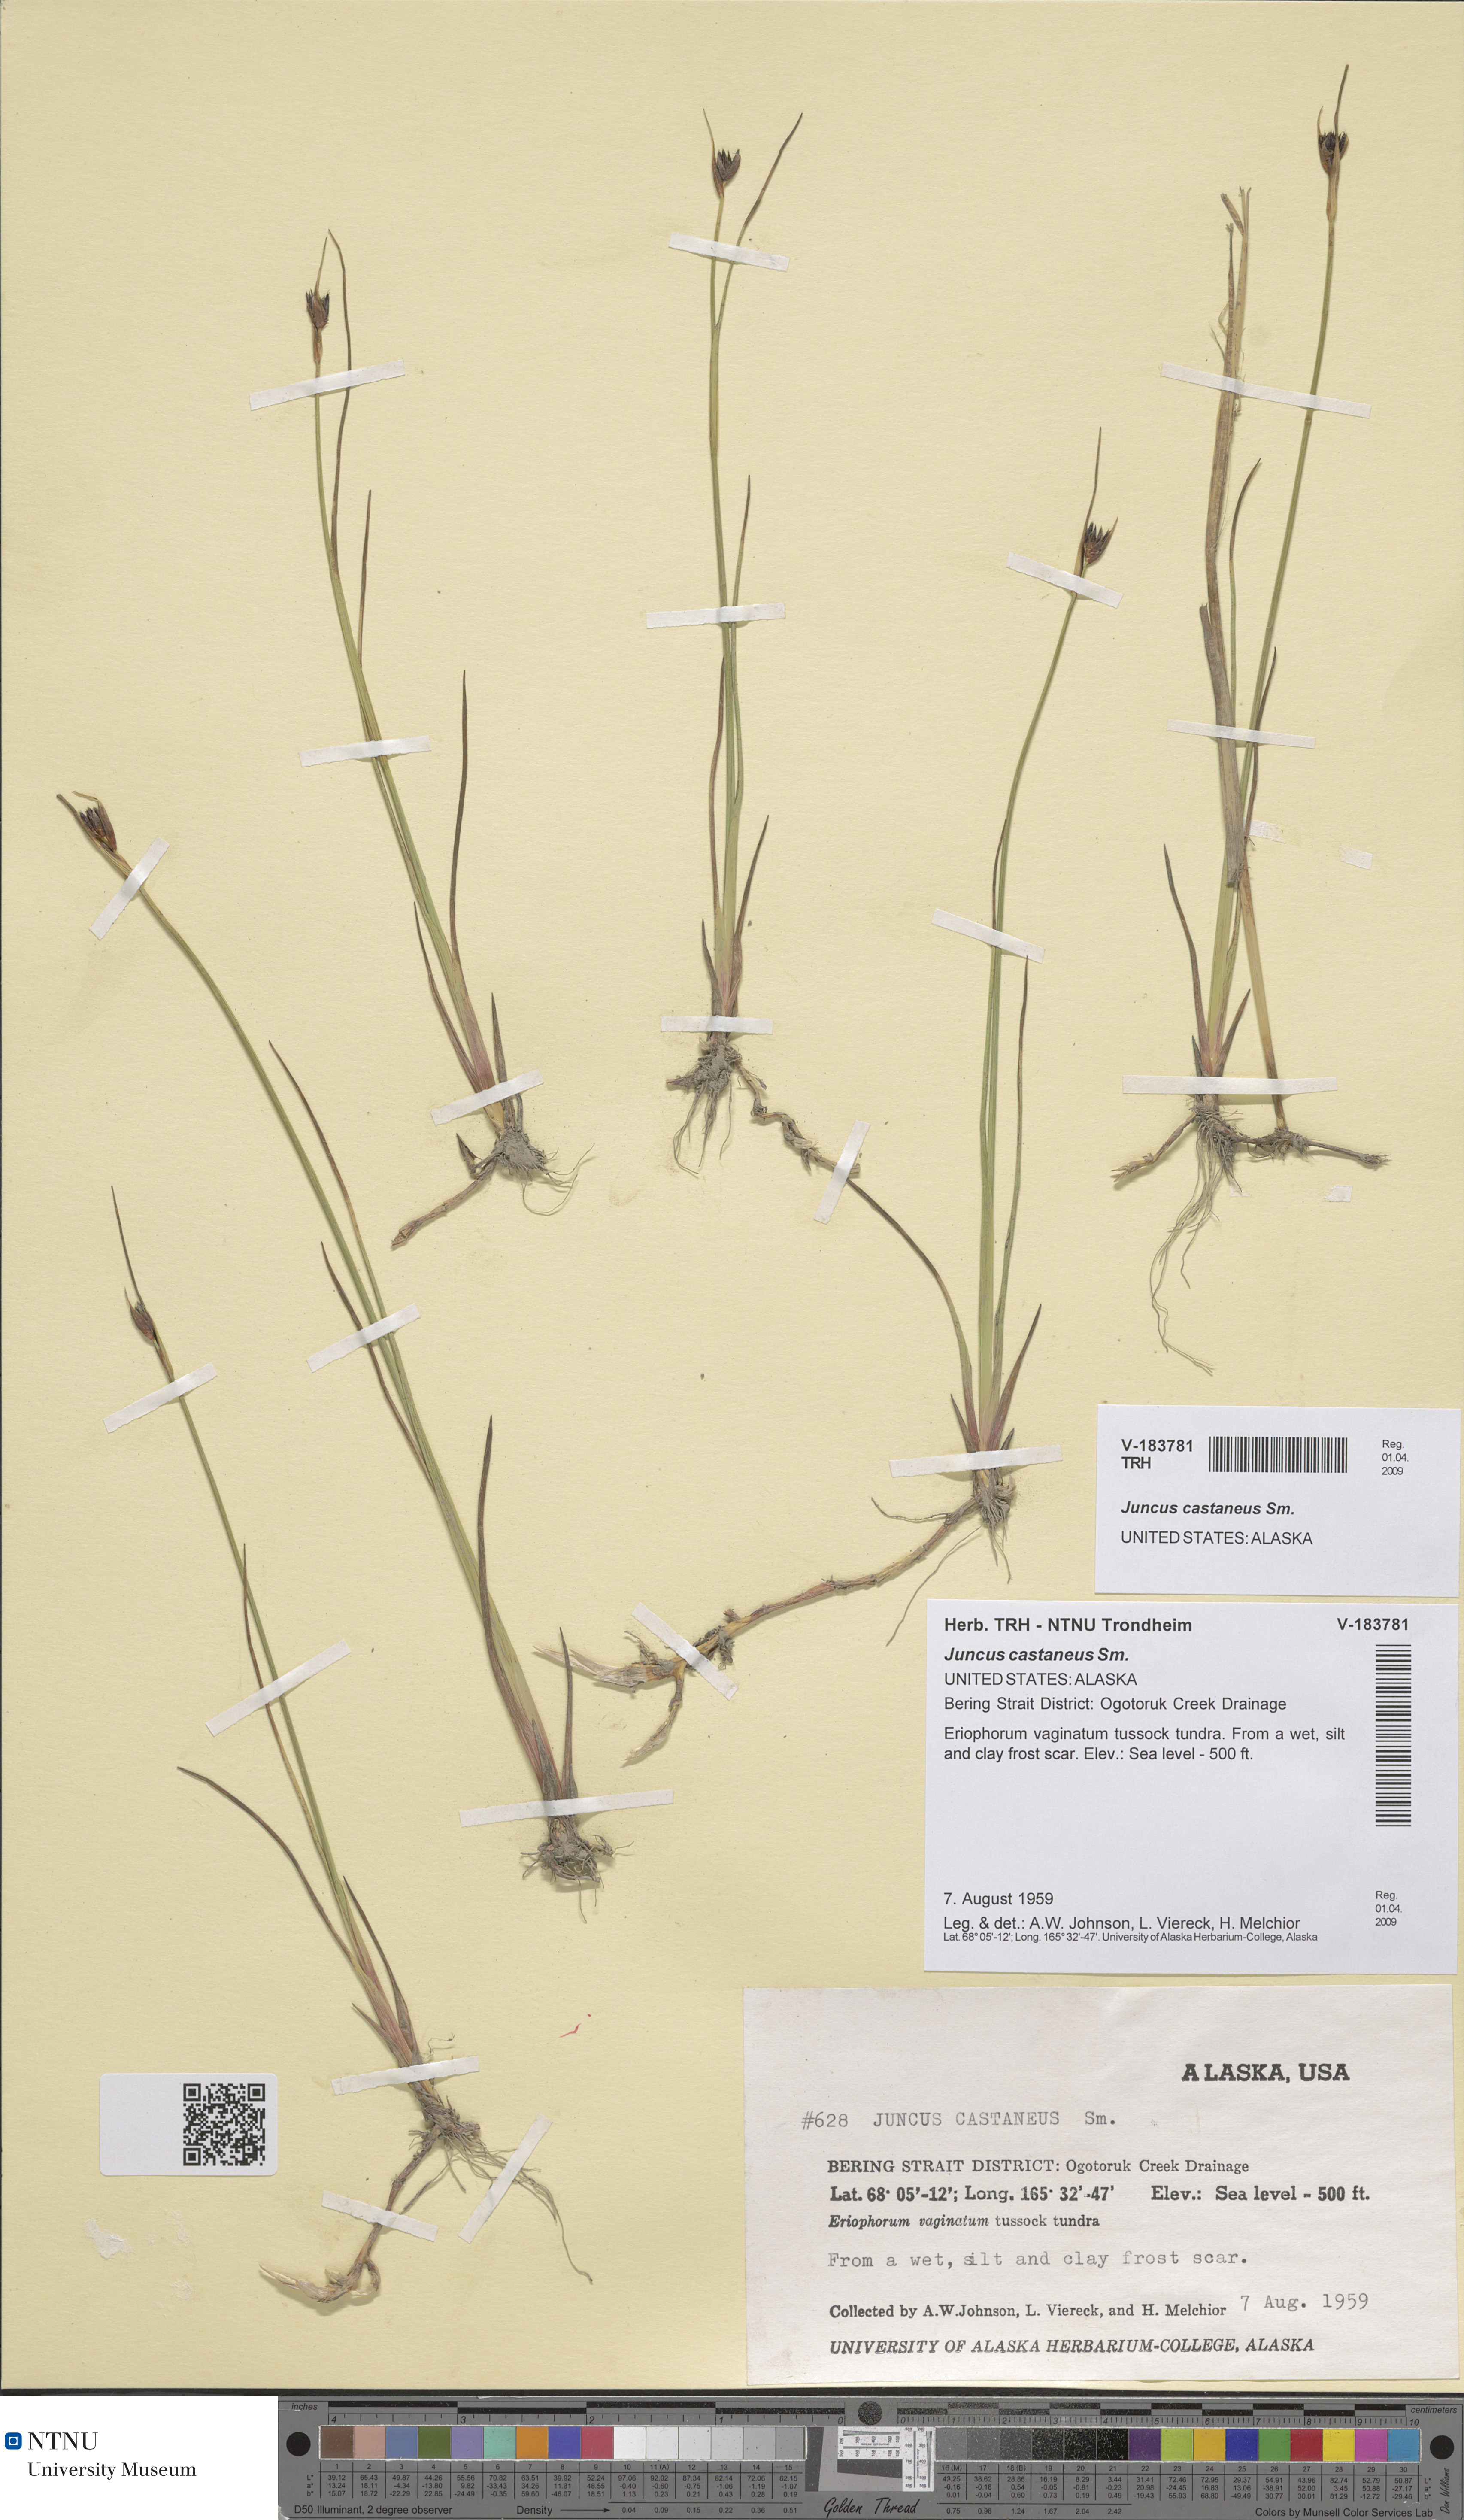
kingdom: Plantae
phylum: Tracheophyta
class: Liliopsida
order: Poales
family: Juncaceae
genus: Juncus
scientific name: Juncus castaneus
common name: Chestnut rush
